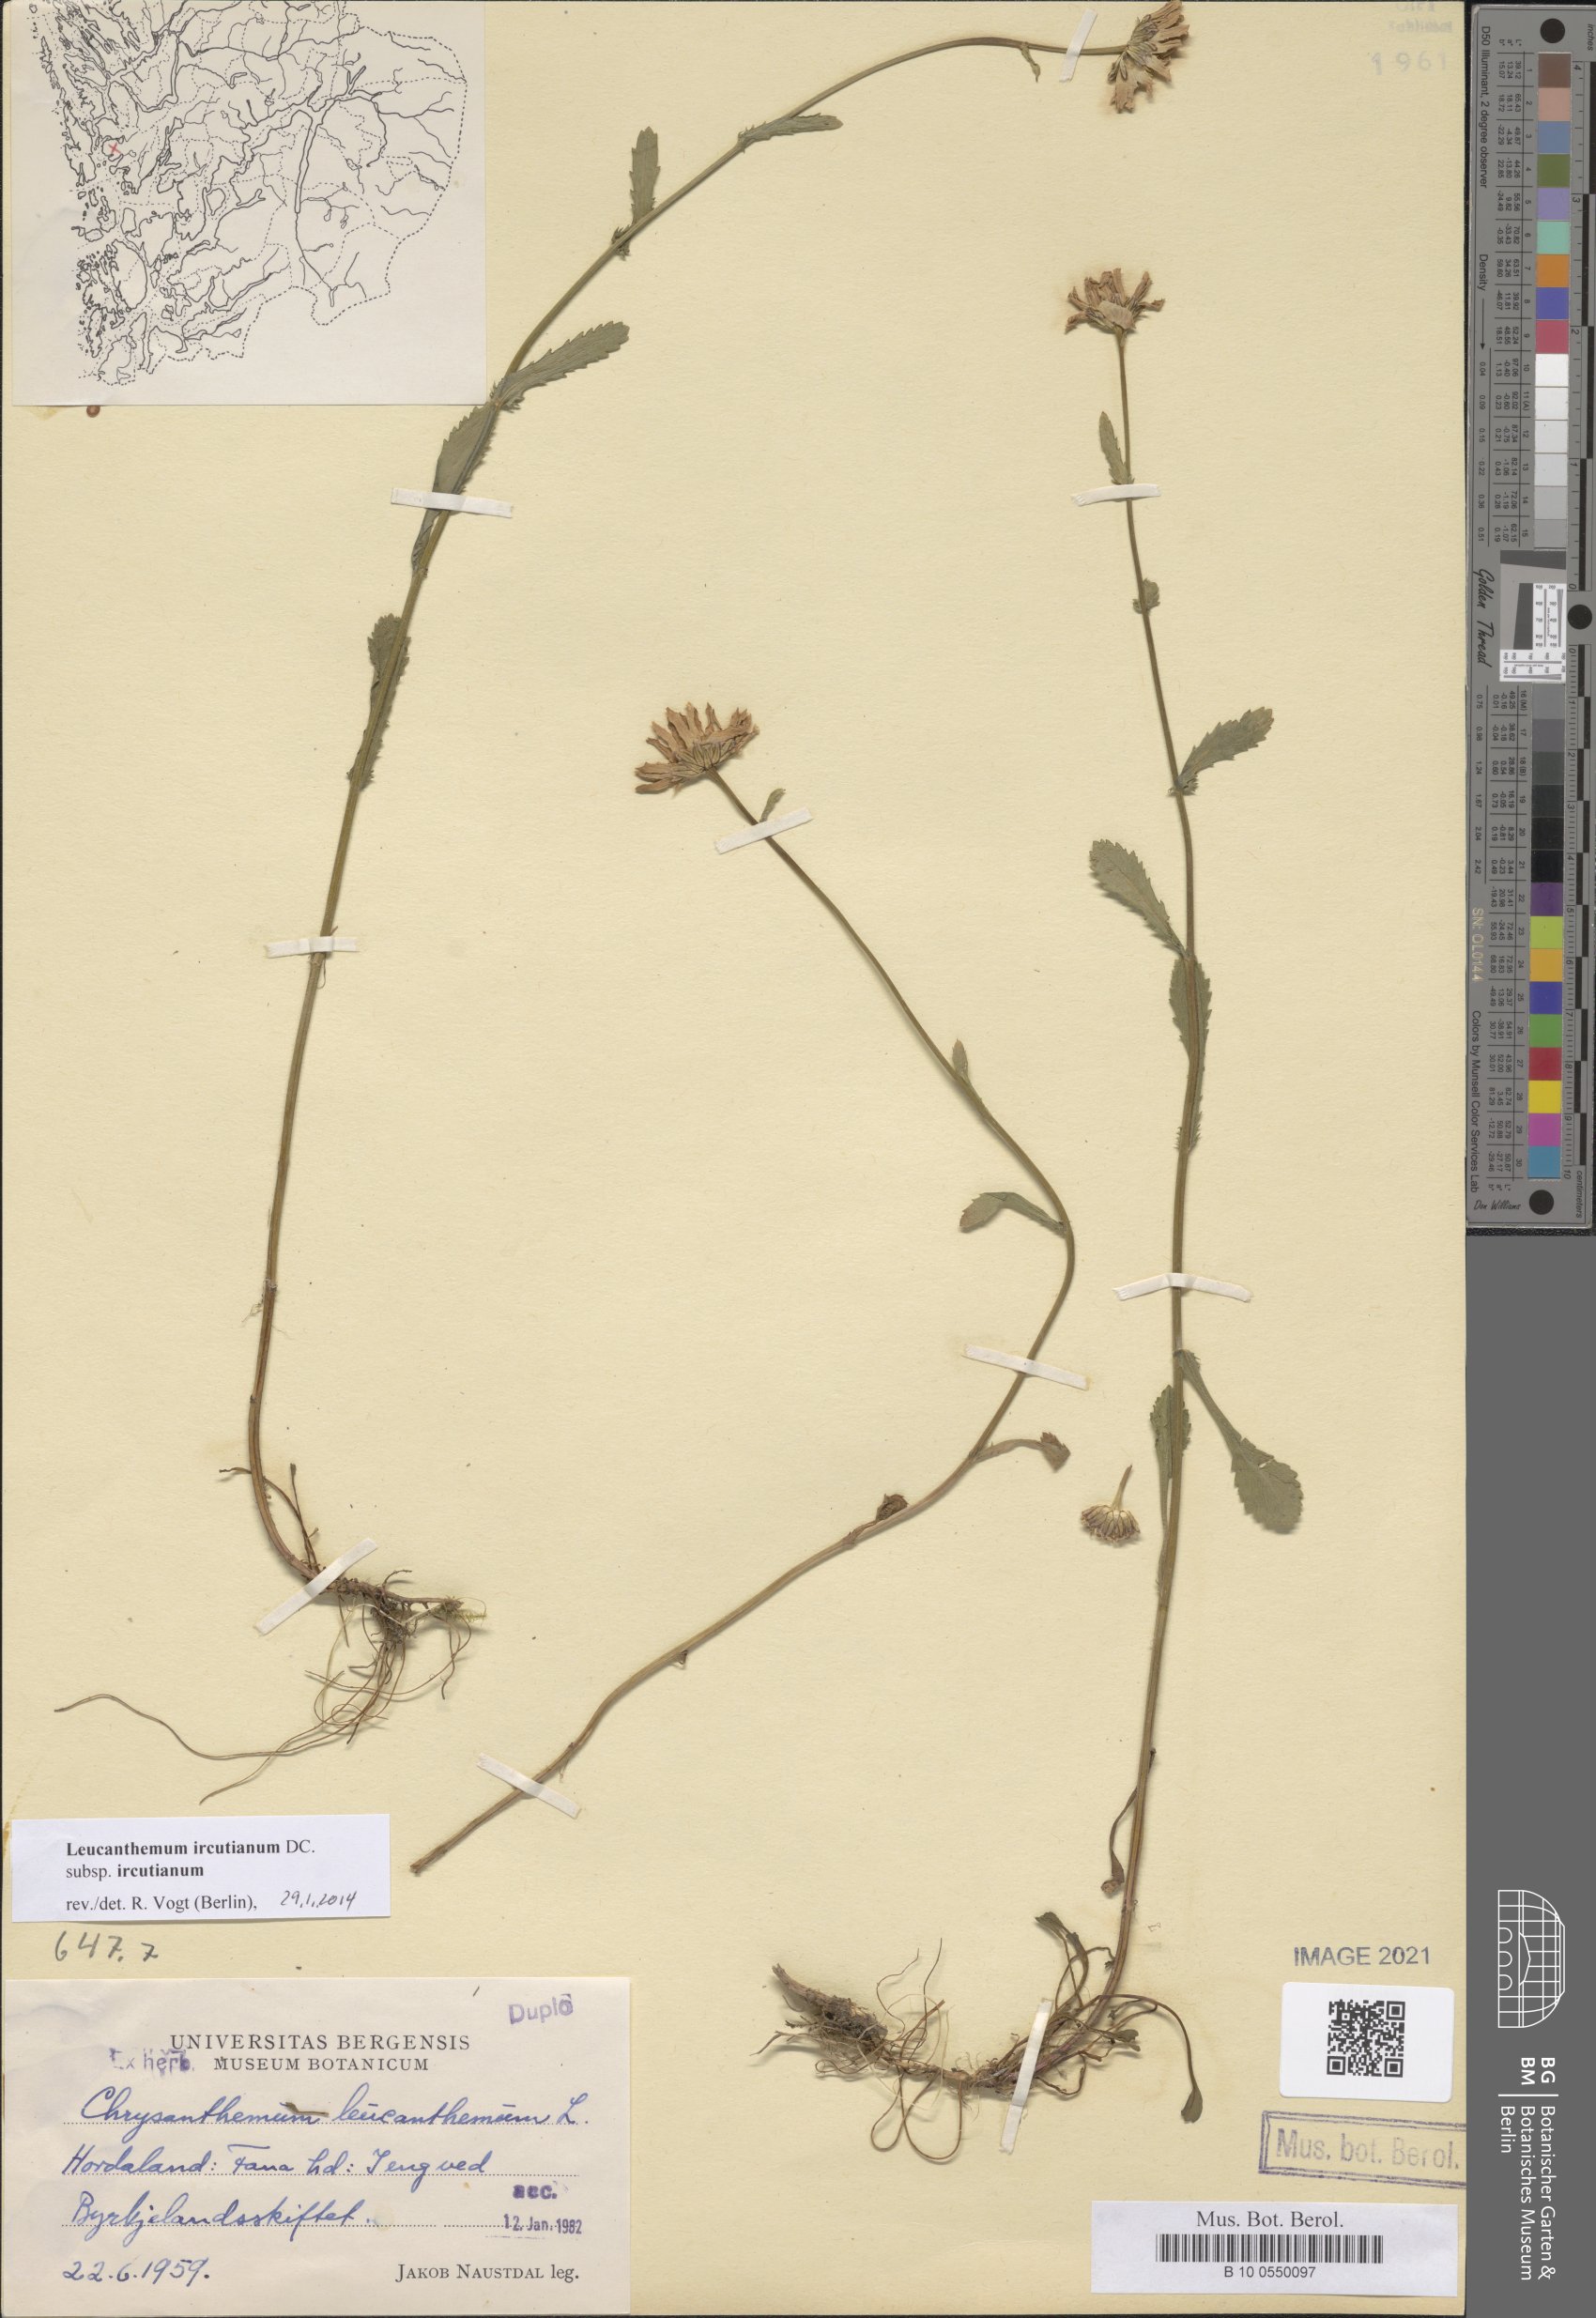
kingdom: Plantae
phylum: Tracheophyta
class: Magnoliopsida
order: Asterales
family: Asteraceae
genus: Leucanthemum
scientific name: Leucanthemum ircutianum
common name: Daisy
